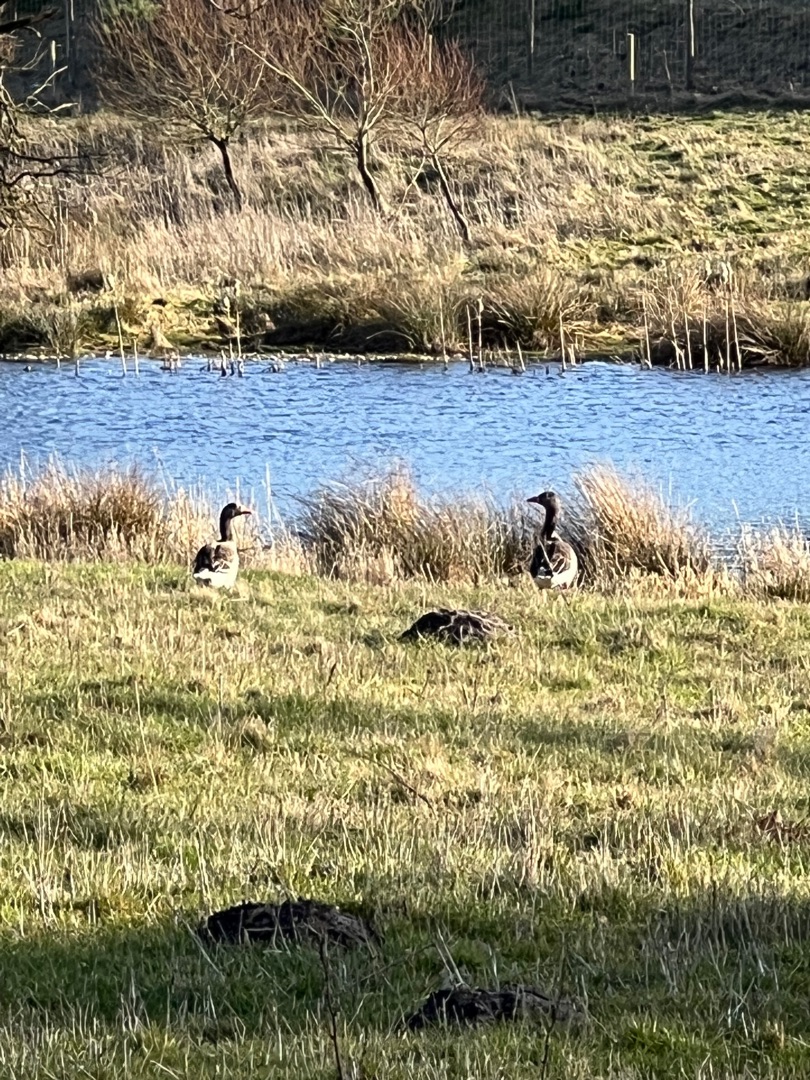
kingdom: Animalia
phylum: Chordata
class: Aves
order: Anseriformes
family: Anatidae
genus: Anser
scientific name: Anser anser
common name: Grågås
